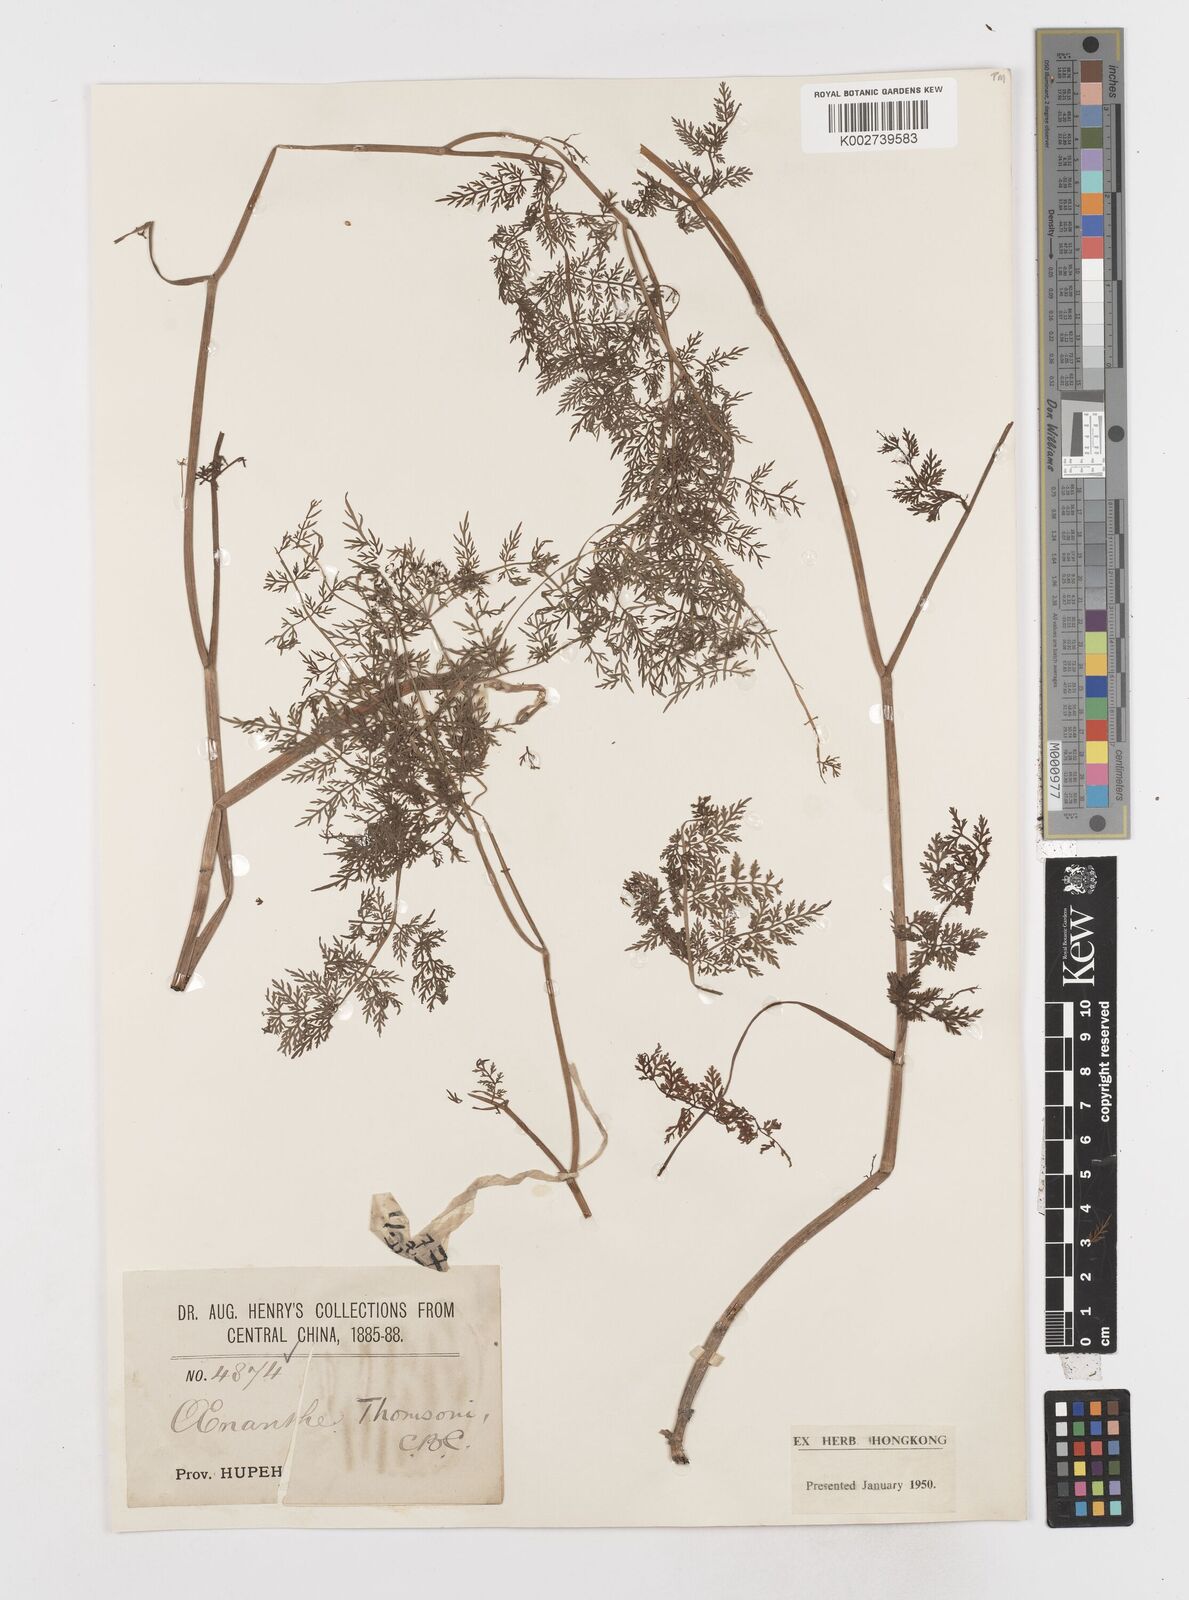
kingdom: Plantae
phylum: Tracheophyta
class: Magnoliopsida
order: Apiales
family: Apiaceae
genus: Oenanthe
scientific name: Oenanthe thomsonii
